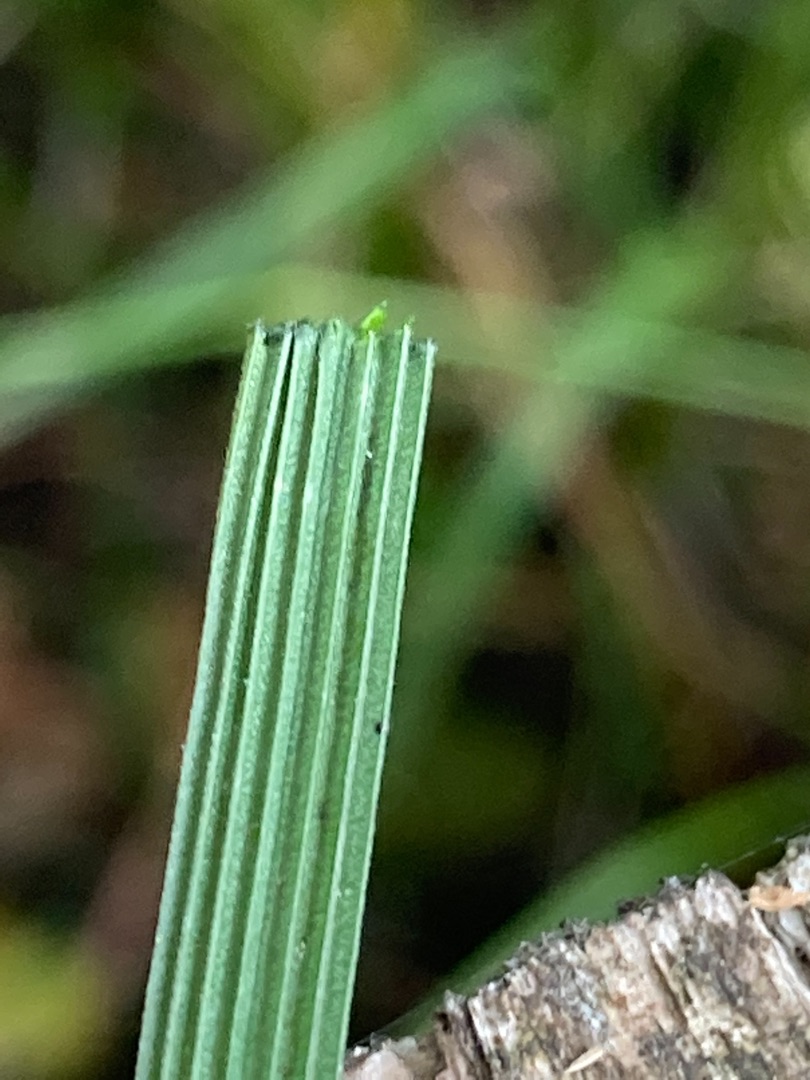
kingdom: Plantae
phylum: Tracheophyta
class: Liliopsida
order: Poales
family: Poaceae
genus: Deschampsia
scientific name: Deschampsia cespitosa
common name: Mose-bunke
